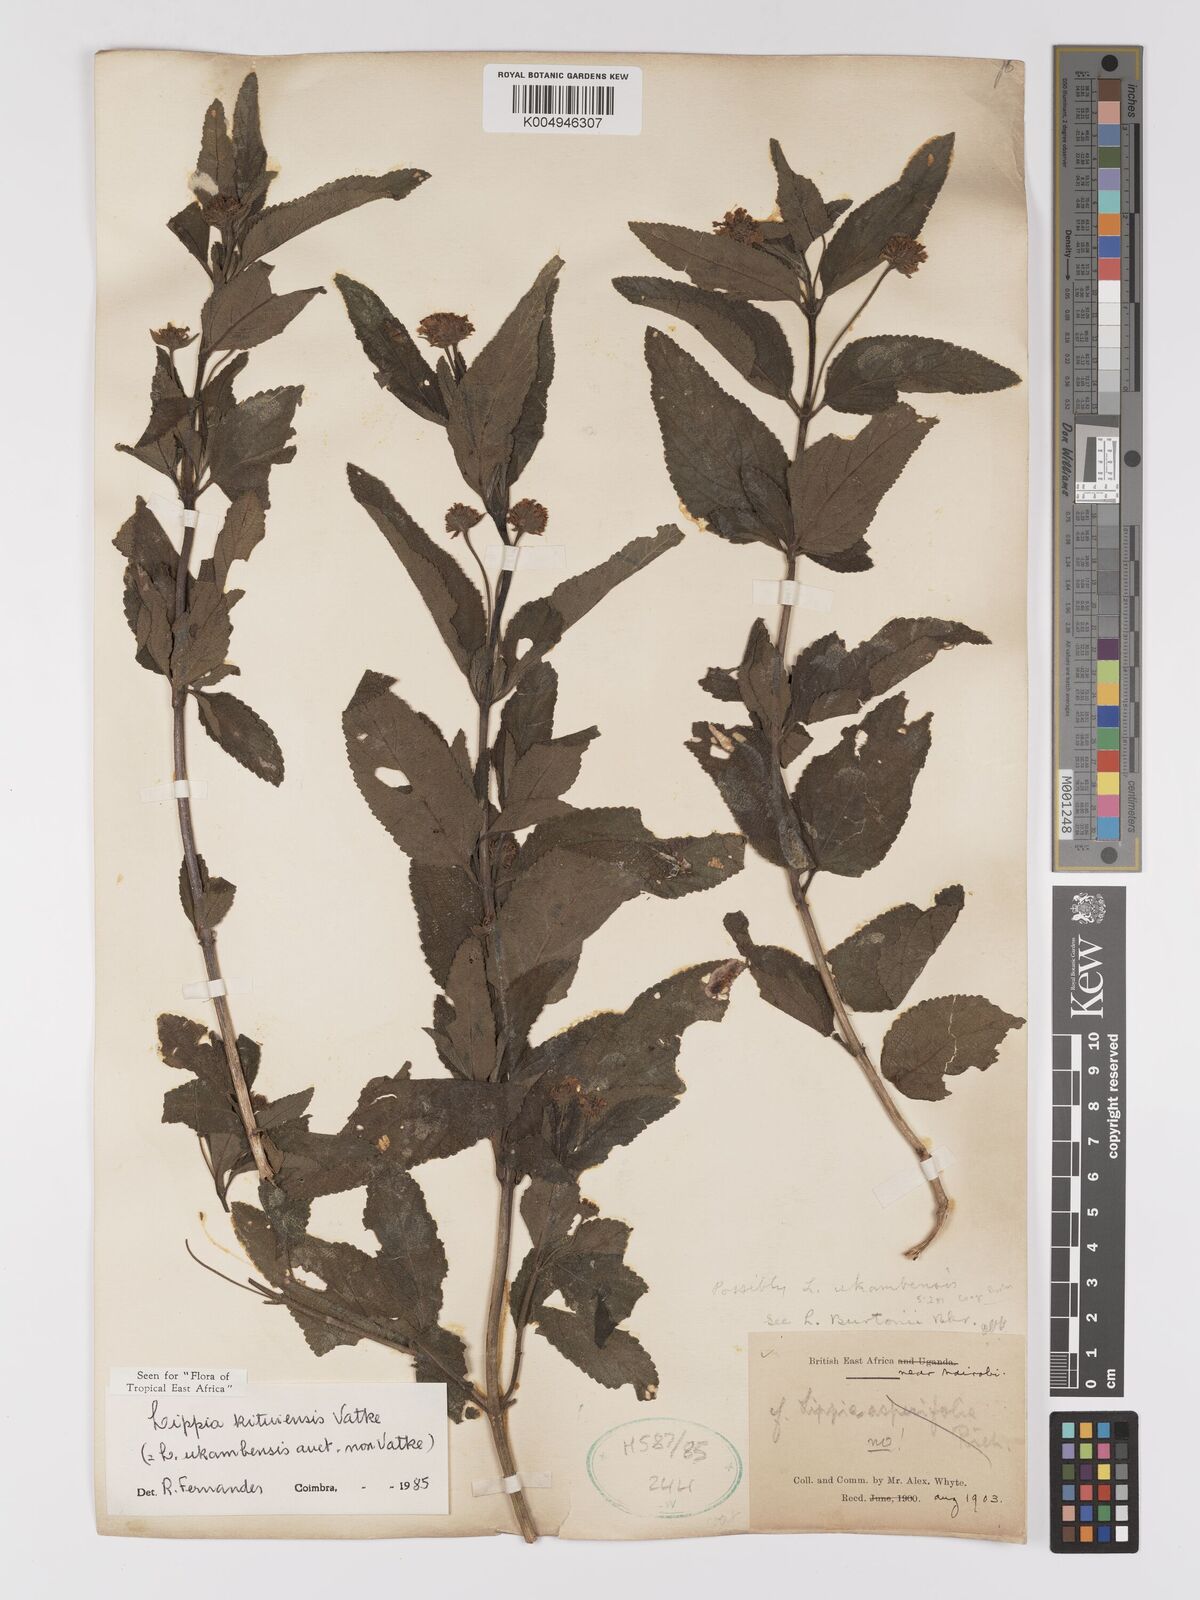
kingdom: Plantae
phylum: Tracheophyta
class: Magnoliopsida
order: Lamiales
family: Verbenaceae
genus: Lippia
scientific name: Lippia kituiensis
